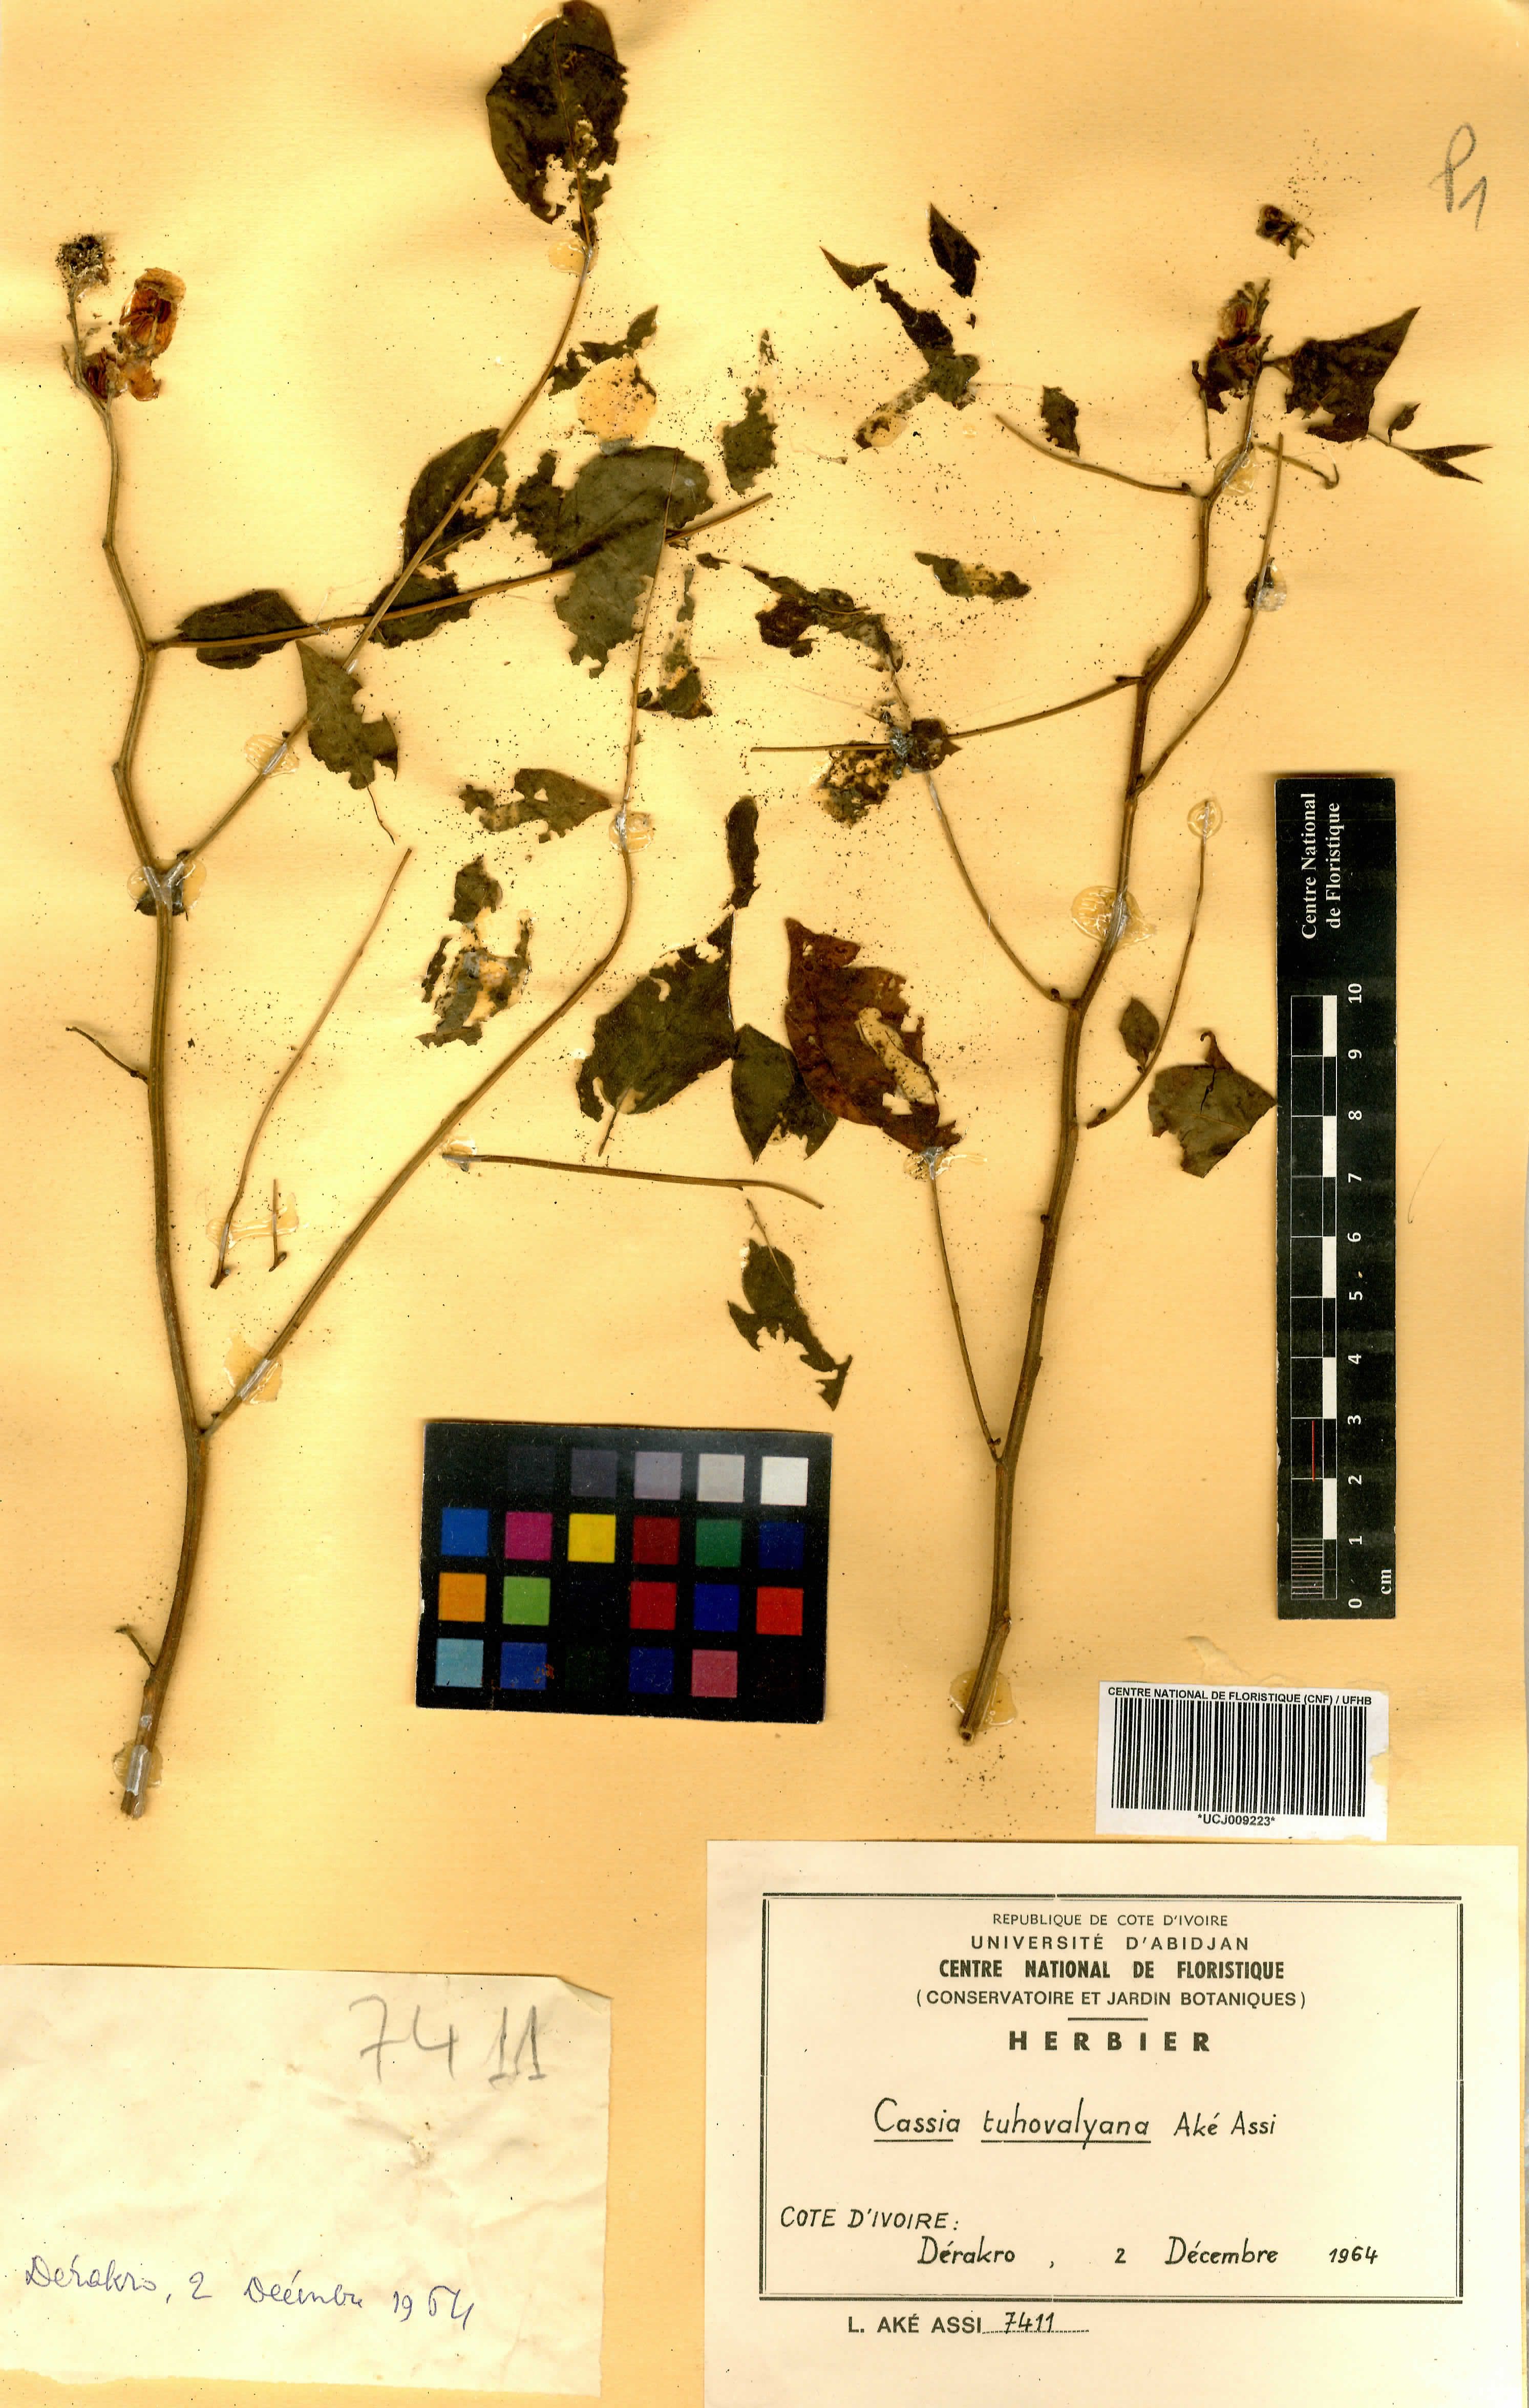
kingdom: Plantae
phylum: Tracheophyta
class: Magnoliopsida
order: Fabales
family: Fabaceae
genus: Senna
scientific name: Senna tuhovalyana
